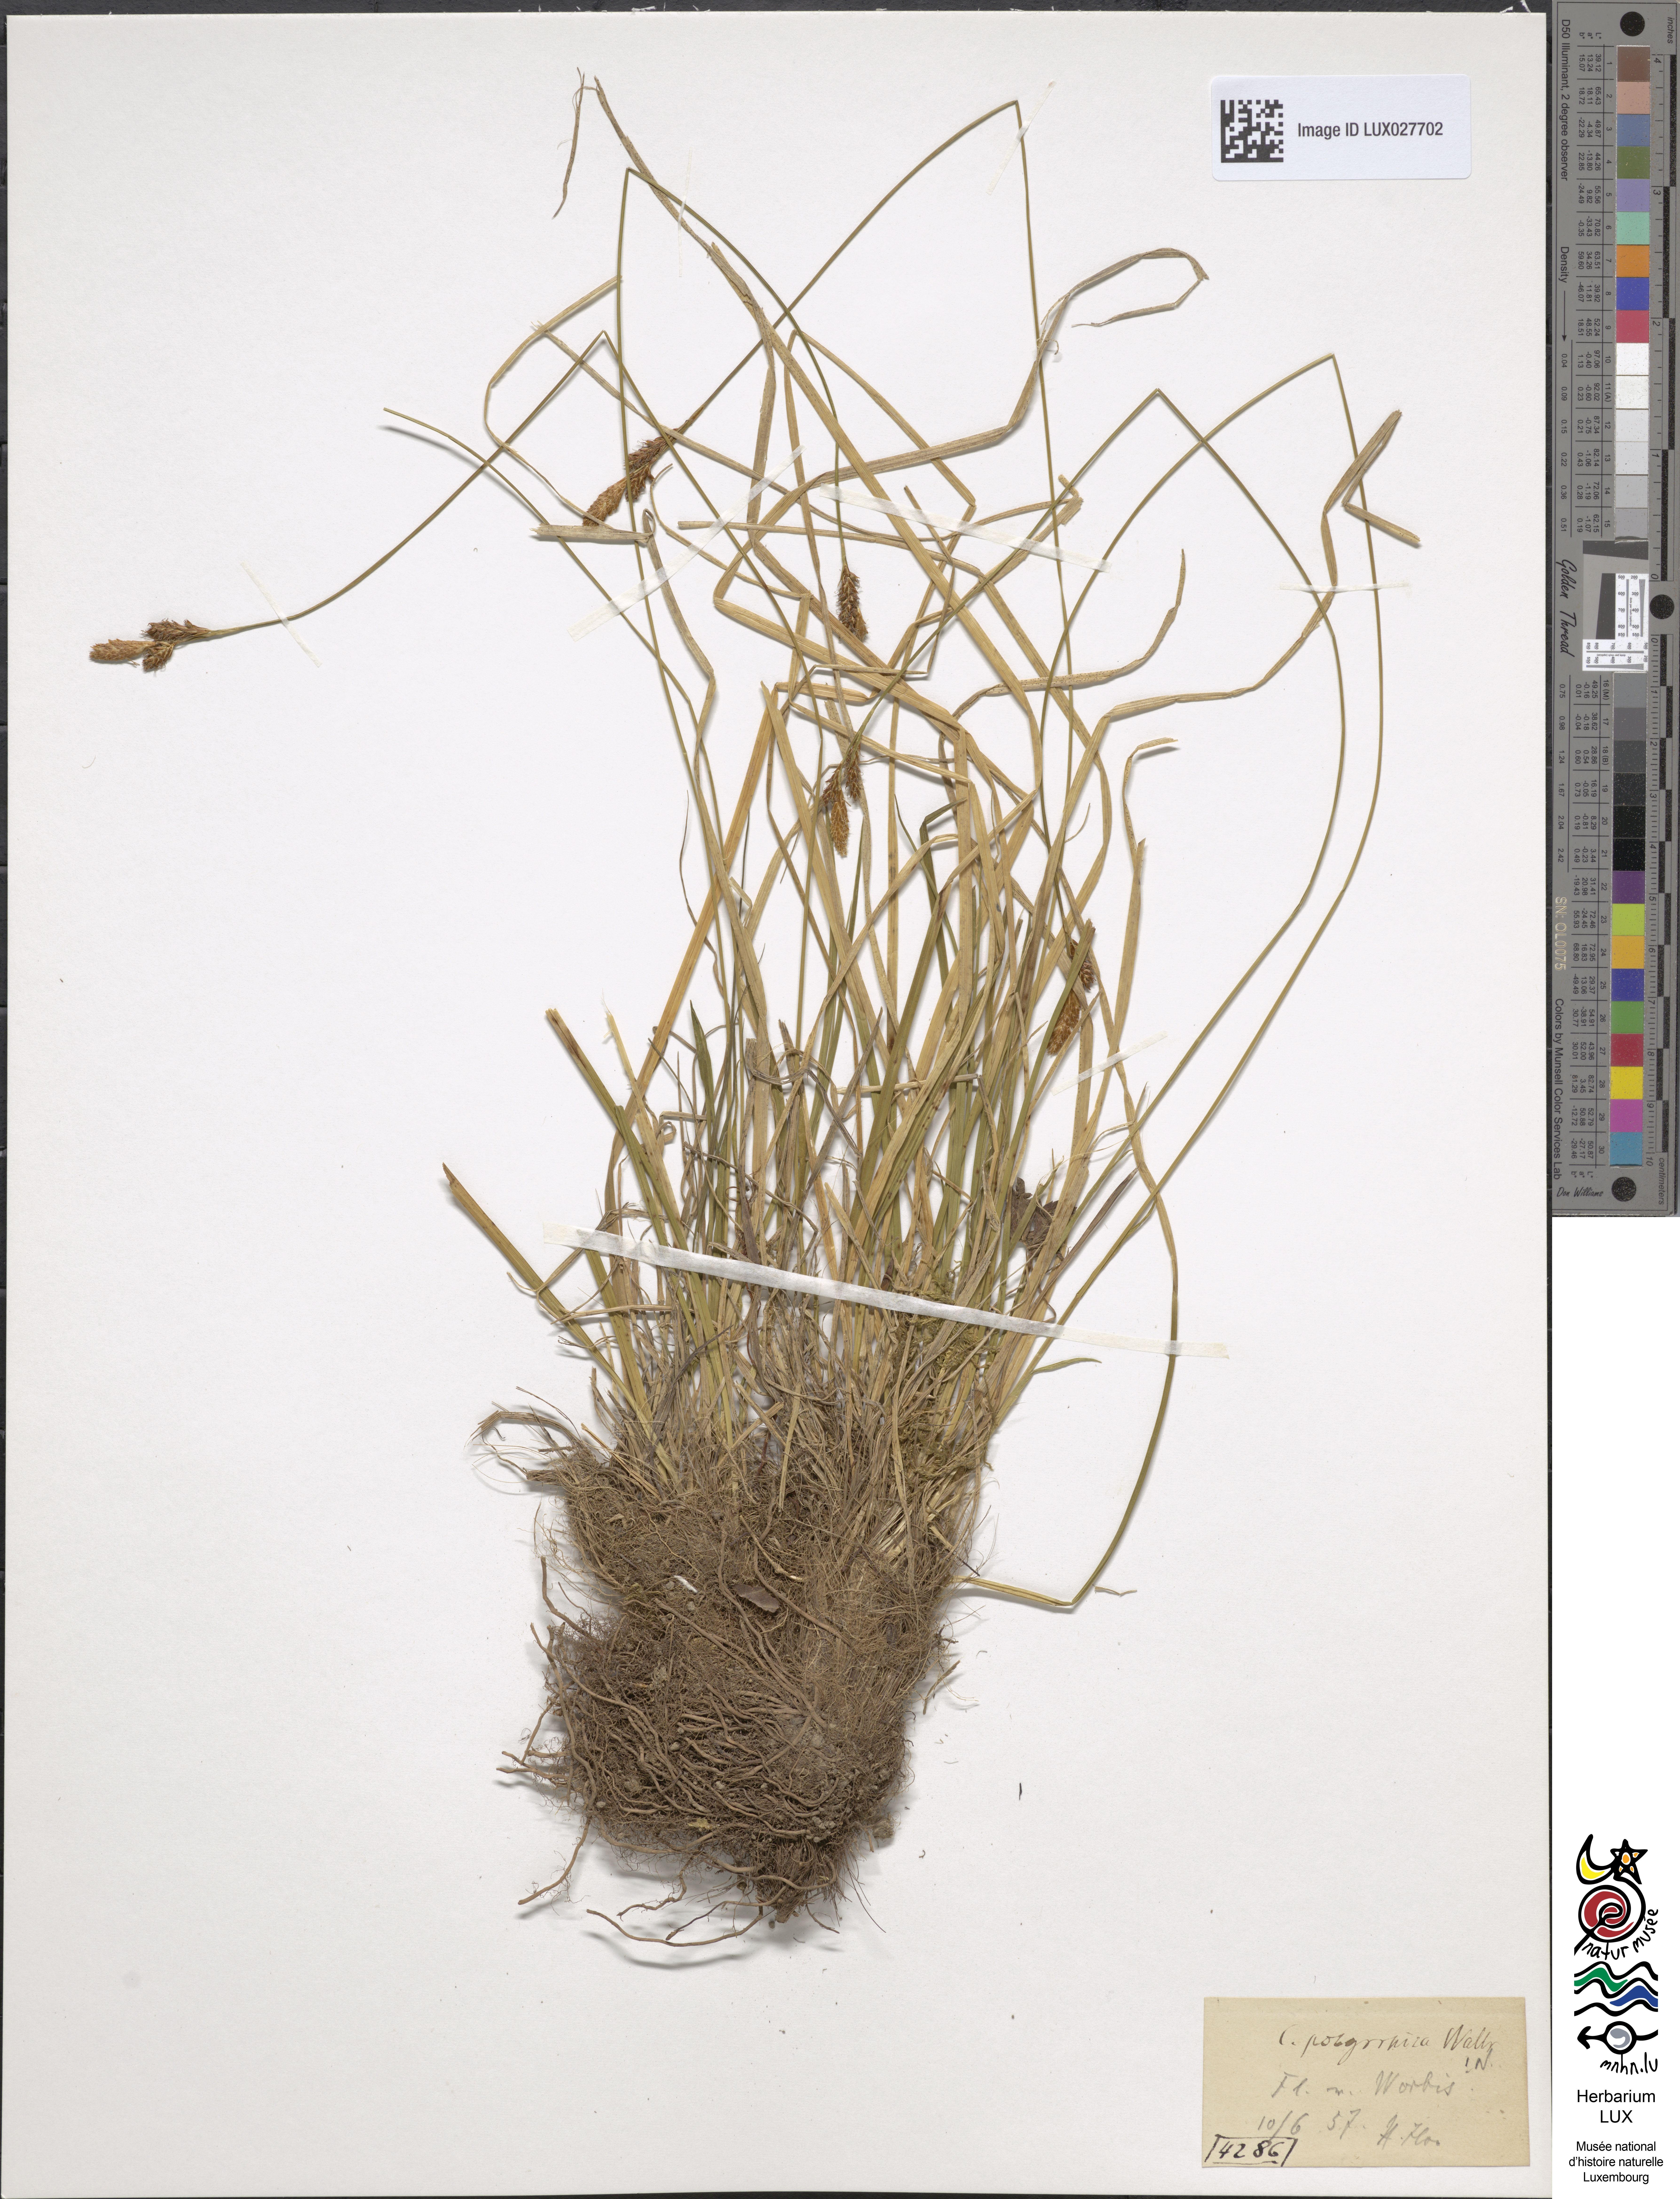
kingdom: Plantae
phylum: Tracheophyta
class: Liliopsida
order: Poales
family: Cyperaceae
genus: Carex
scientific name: Carex umbrosa
